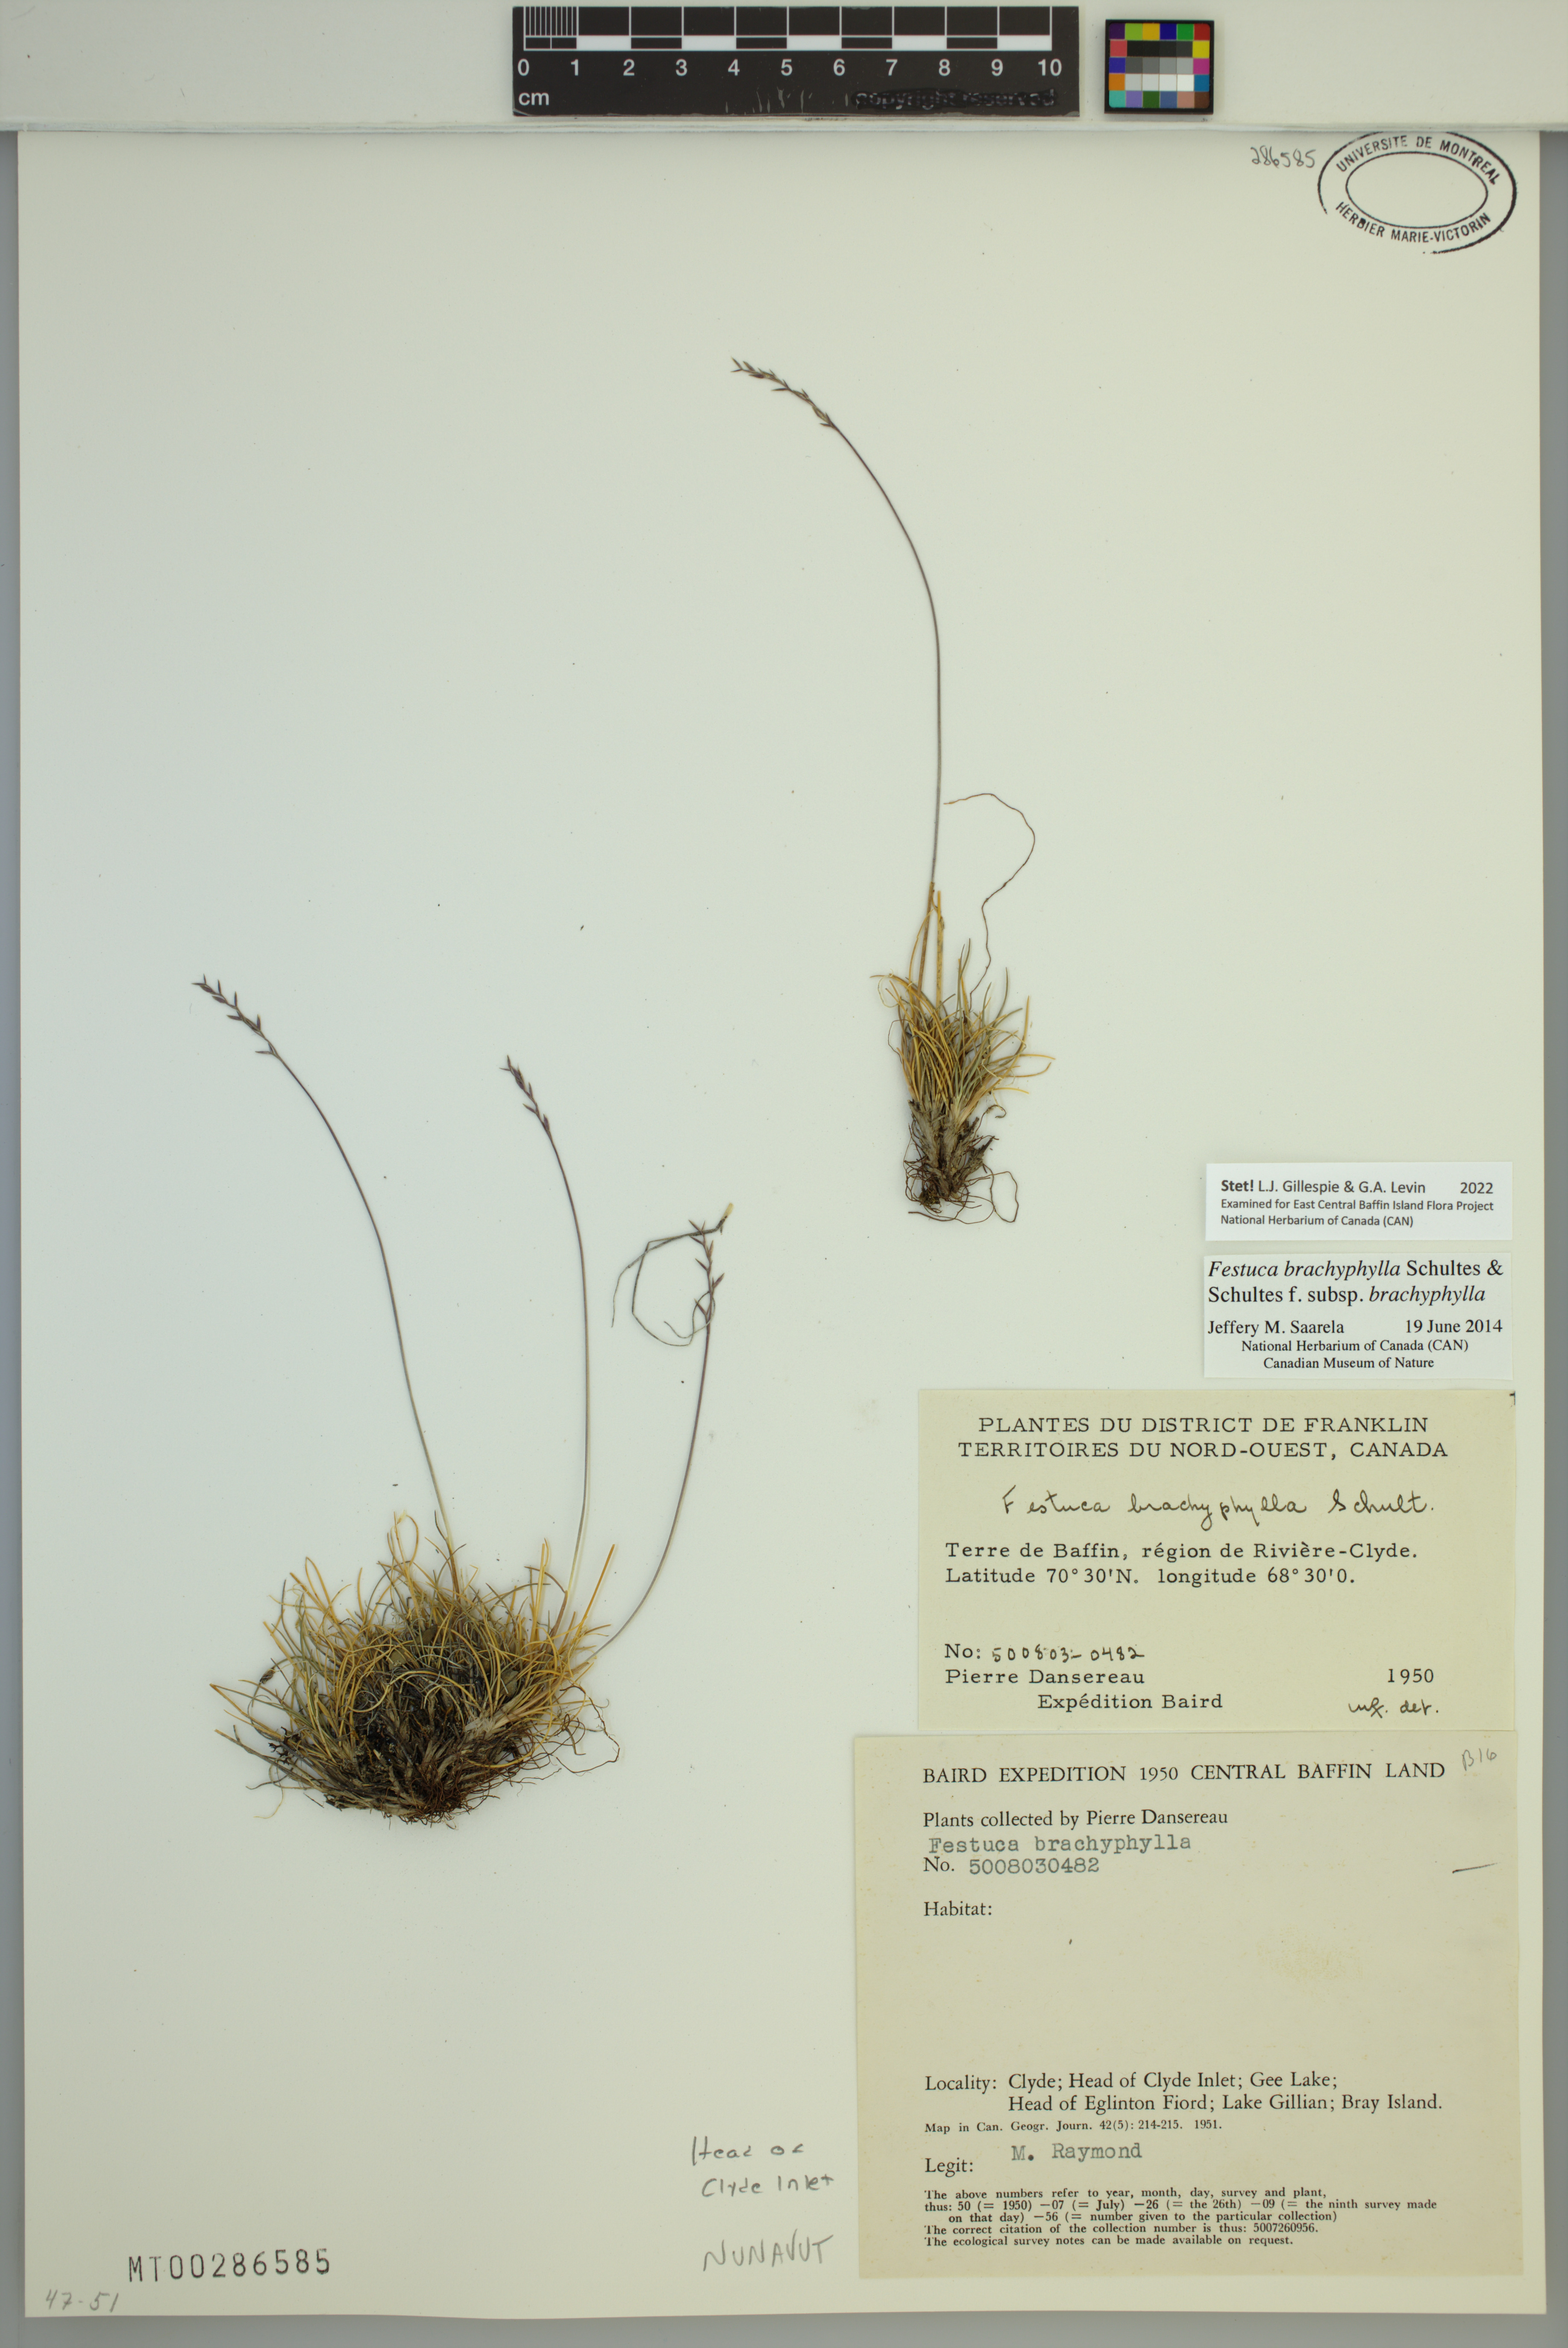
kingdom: Plantae
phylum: Tracheophyta
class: Liliopsida
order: Poales
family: Poaceae
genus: Festuca
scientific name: Festuca brachyphylla
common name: Alpine fescue
